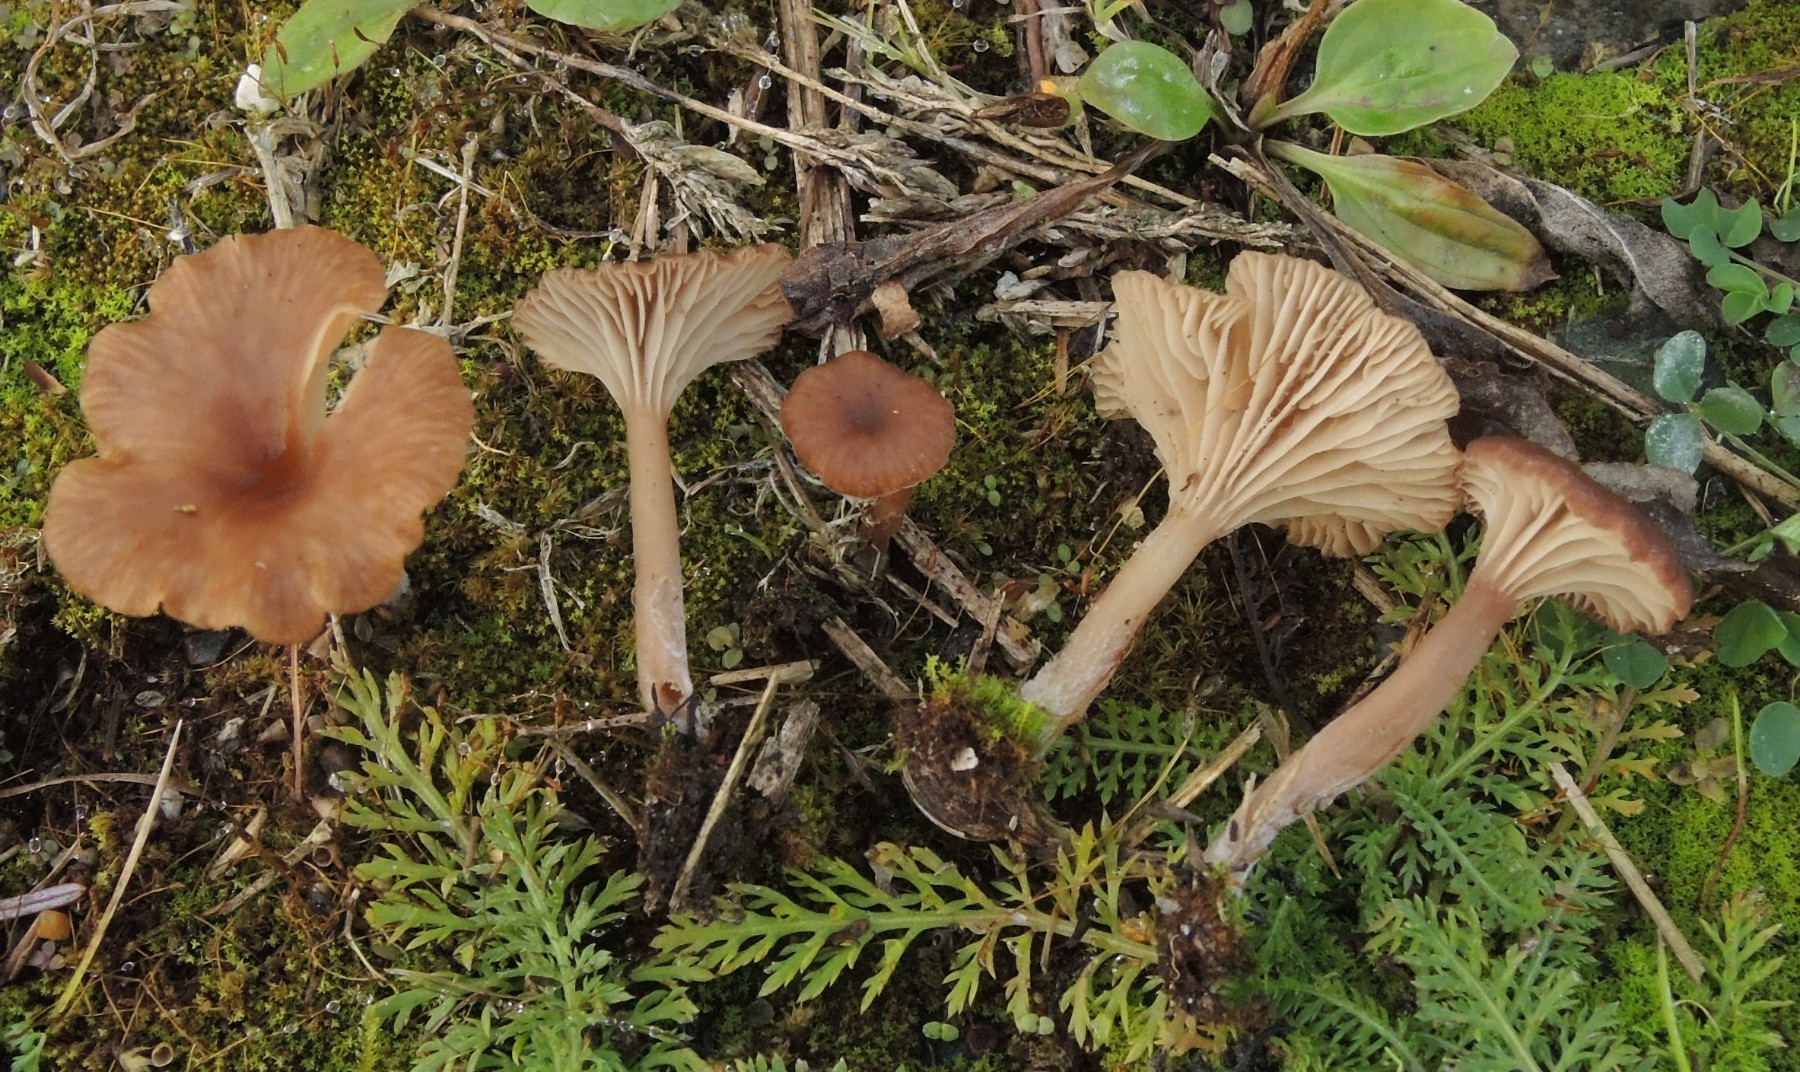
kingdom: Fungi
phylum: Basidiomycota
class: Agaricomycetes
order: Agaricales
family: Tricholomataceae
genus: Omphalina
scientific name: Omphalina pyxidata
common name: rødbrun navlehat
